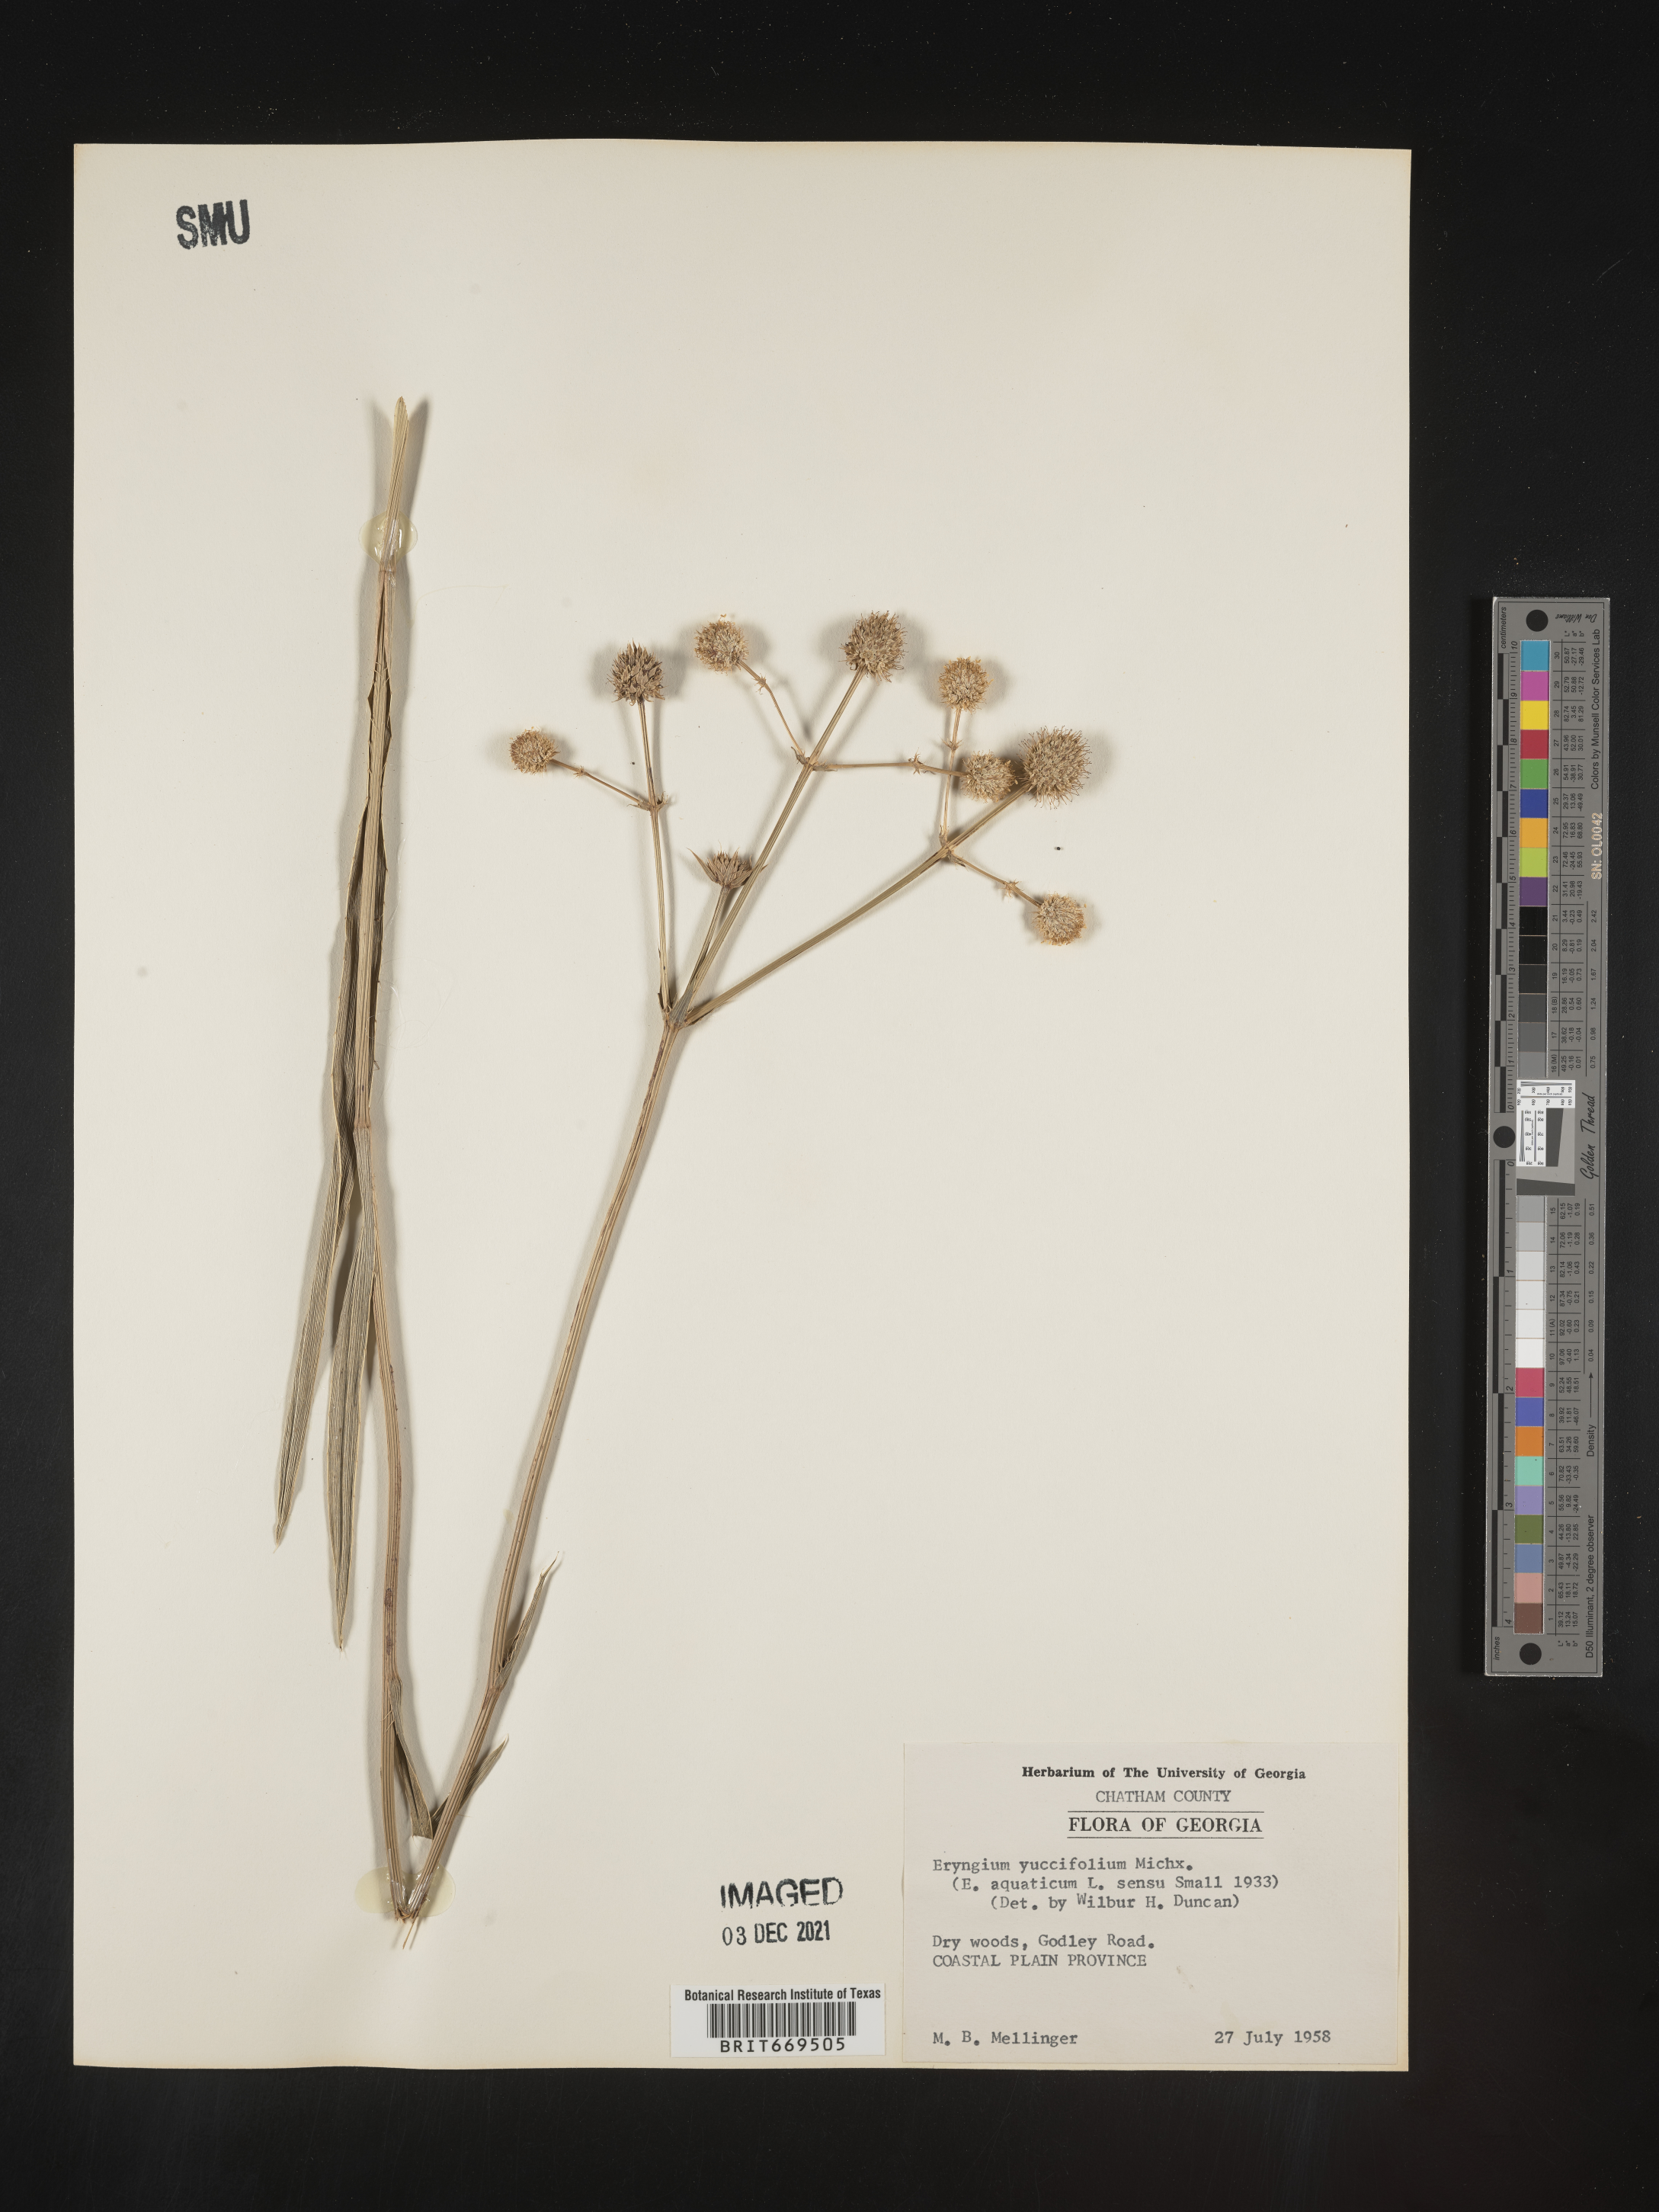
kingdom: Plantae
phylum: Tracheophyta
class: Magnoliopsida
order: Apiales
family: Apiaceae
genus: Eryngium
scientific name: Eryngium yuccifolium
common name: Button eryngo
